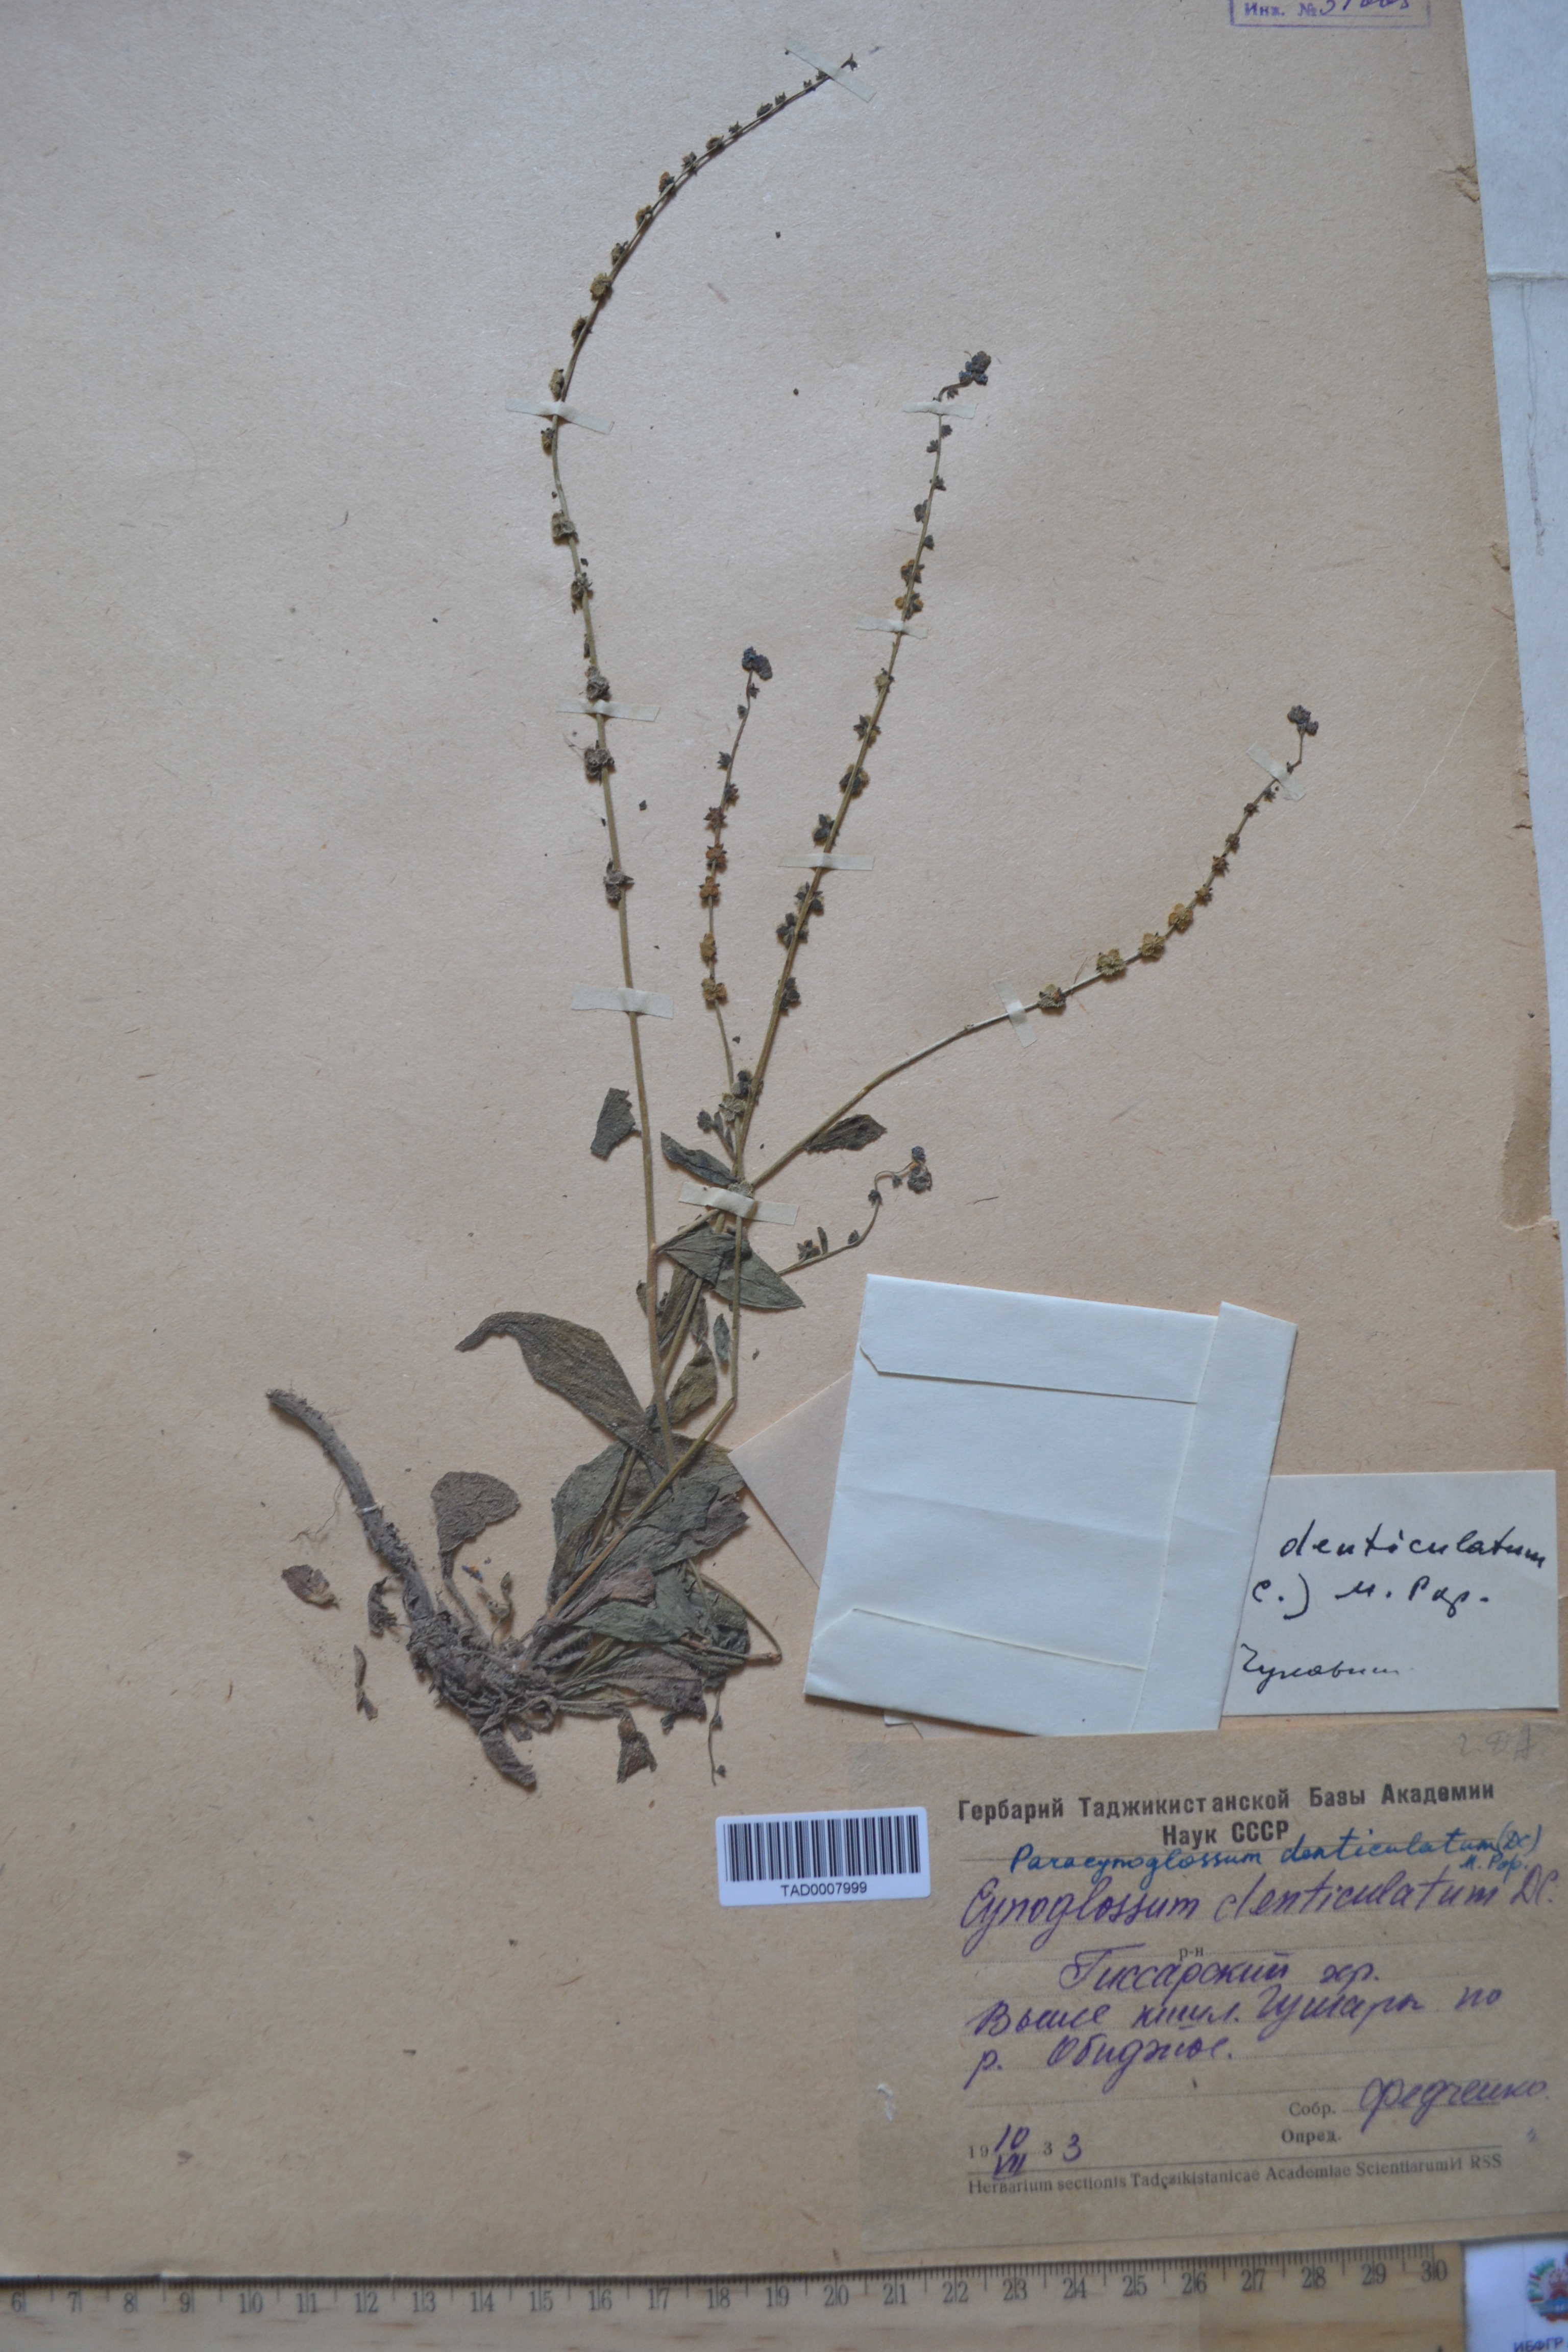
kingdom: Plantae
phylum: Tracheophyta
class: Magnoliopsida
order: Boraginales
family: Boraginaceae
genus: Paracynoglossum
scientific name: Paracynoglossum glochidiatum
